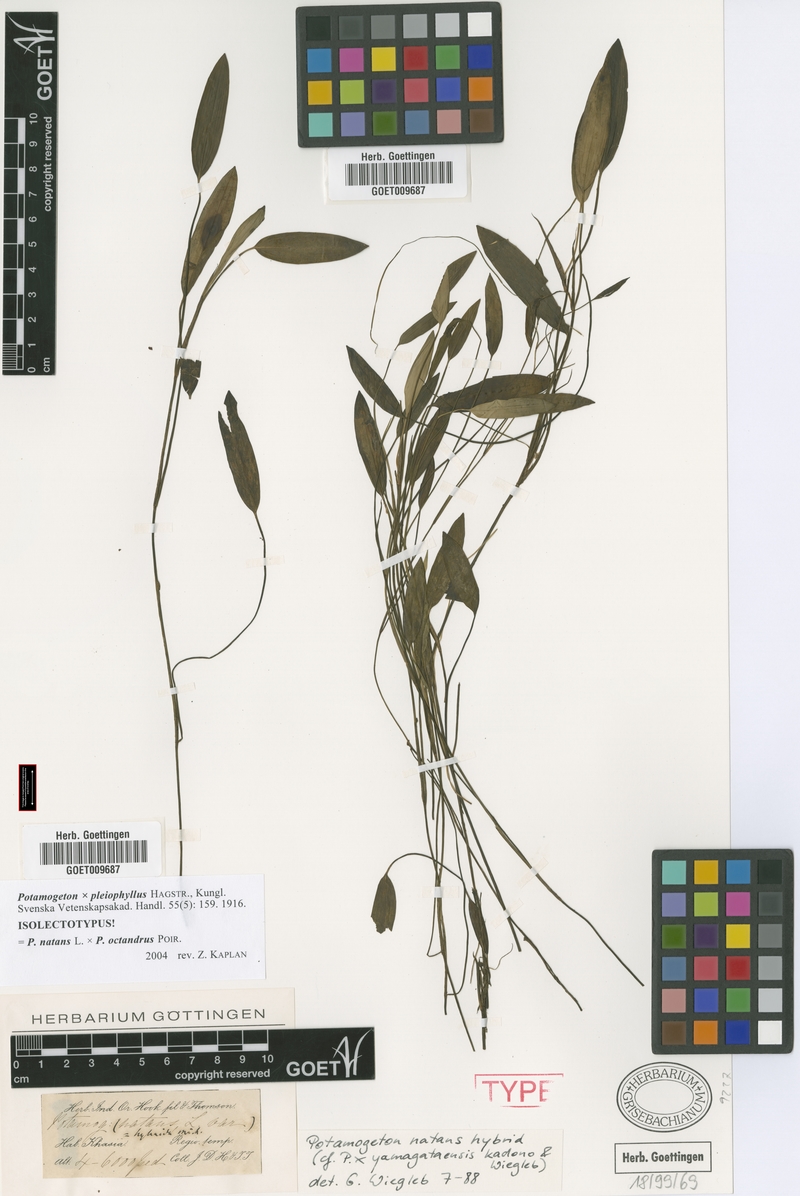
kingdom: Plantae
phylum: Tracheophyta
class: Liliopsida
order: Alismatales
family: Potamogetonaceae
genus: Potamogeton
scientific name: Potamogeton yamagataensis
